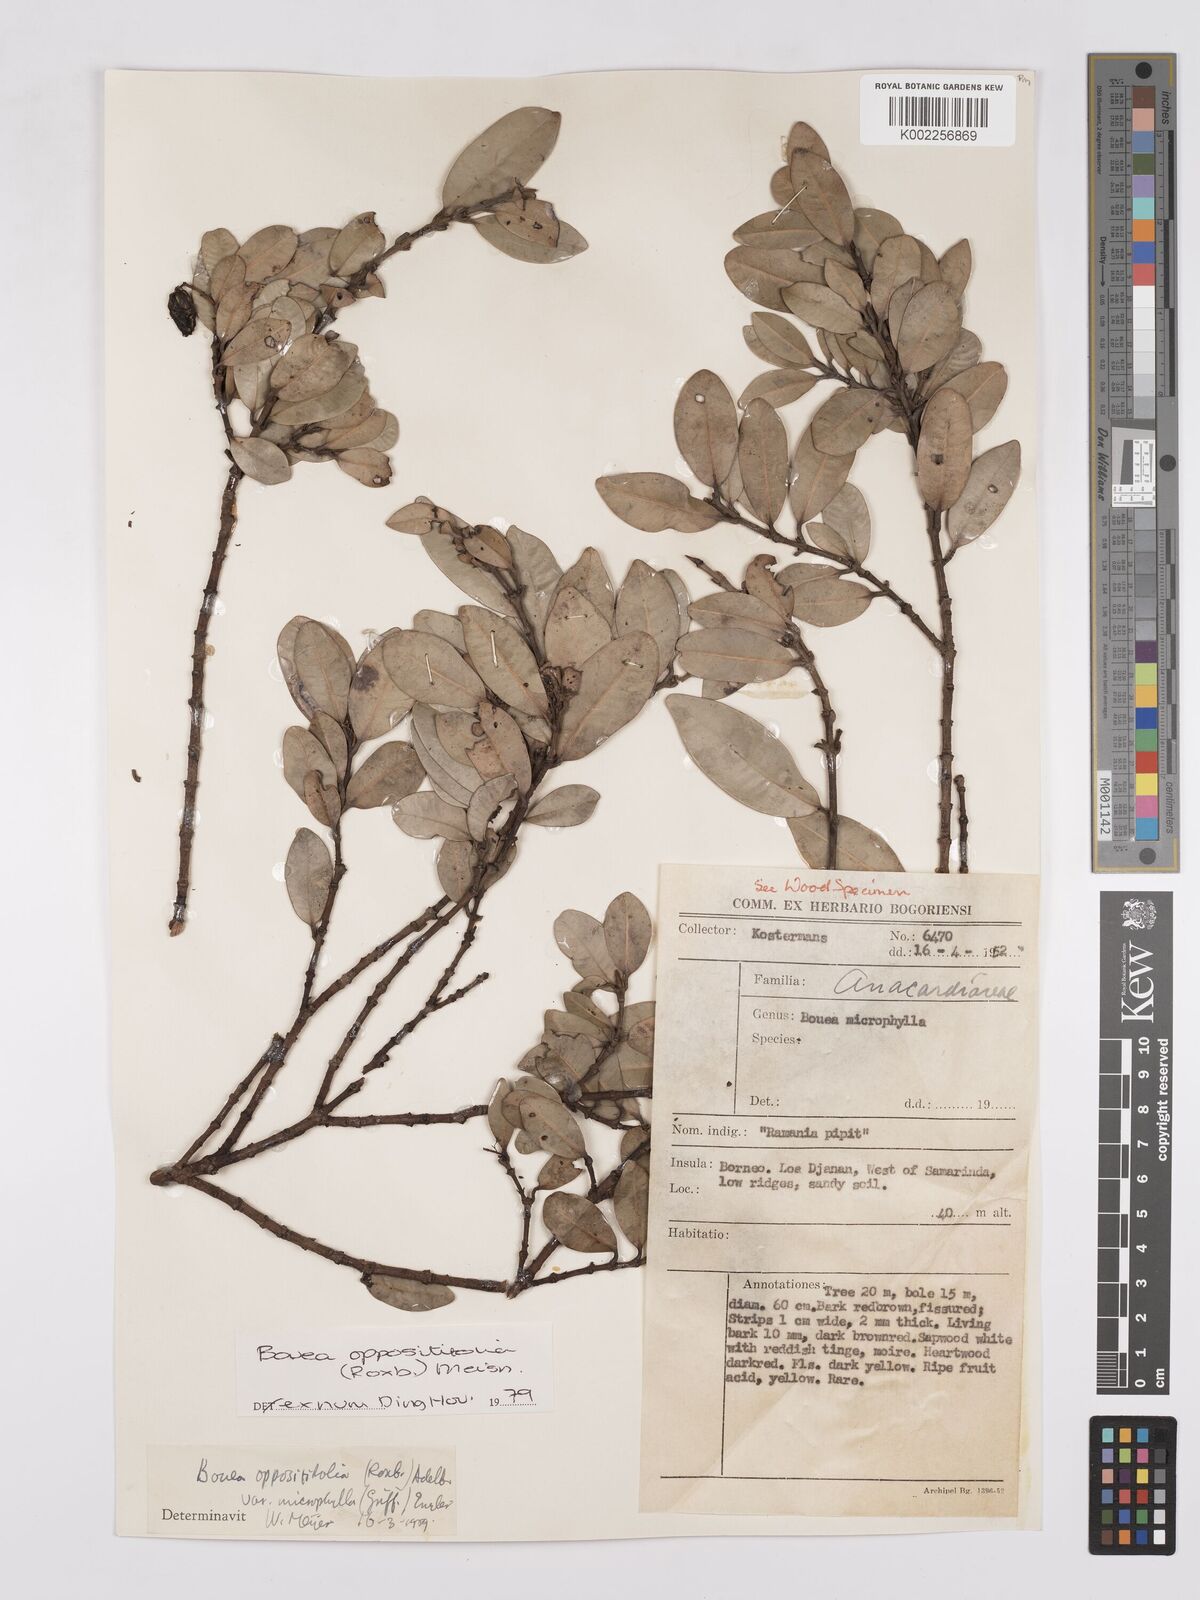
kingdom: Plantae
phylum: Tracheophyta
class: Magnoliopsida
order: Sapindales
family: Anacardiaceae
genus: Bouea
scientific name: Bouea oppositifolia
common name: Narrow-leaved kundang
